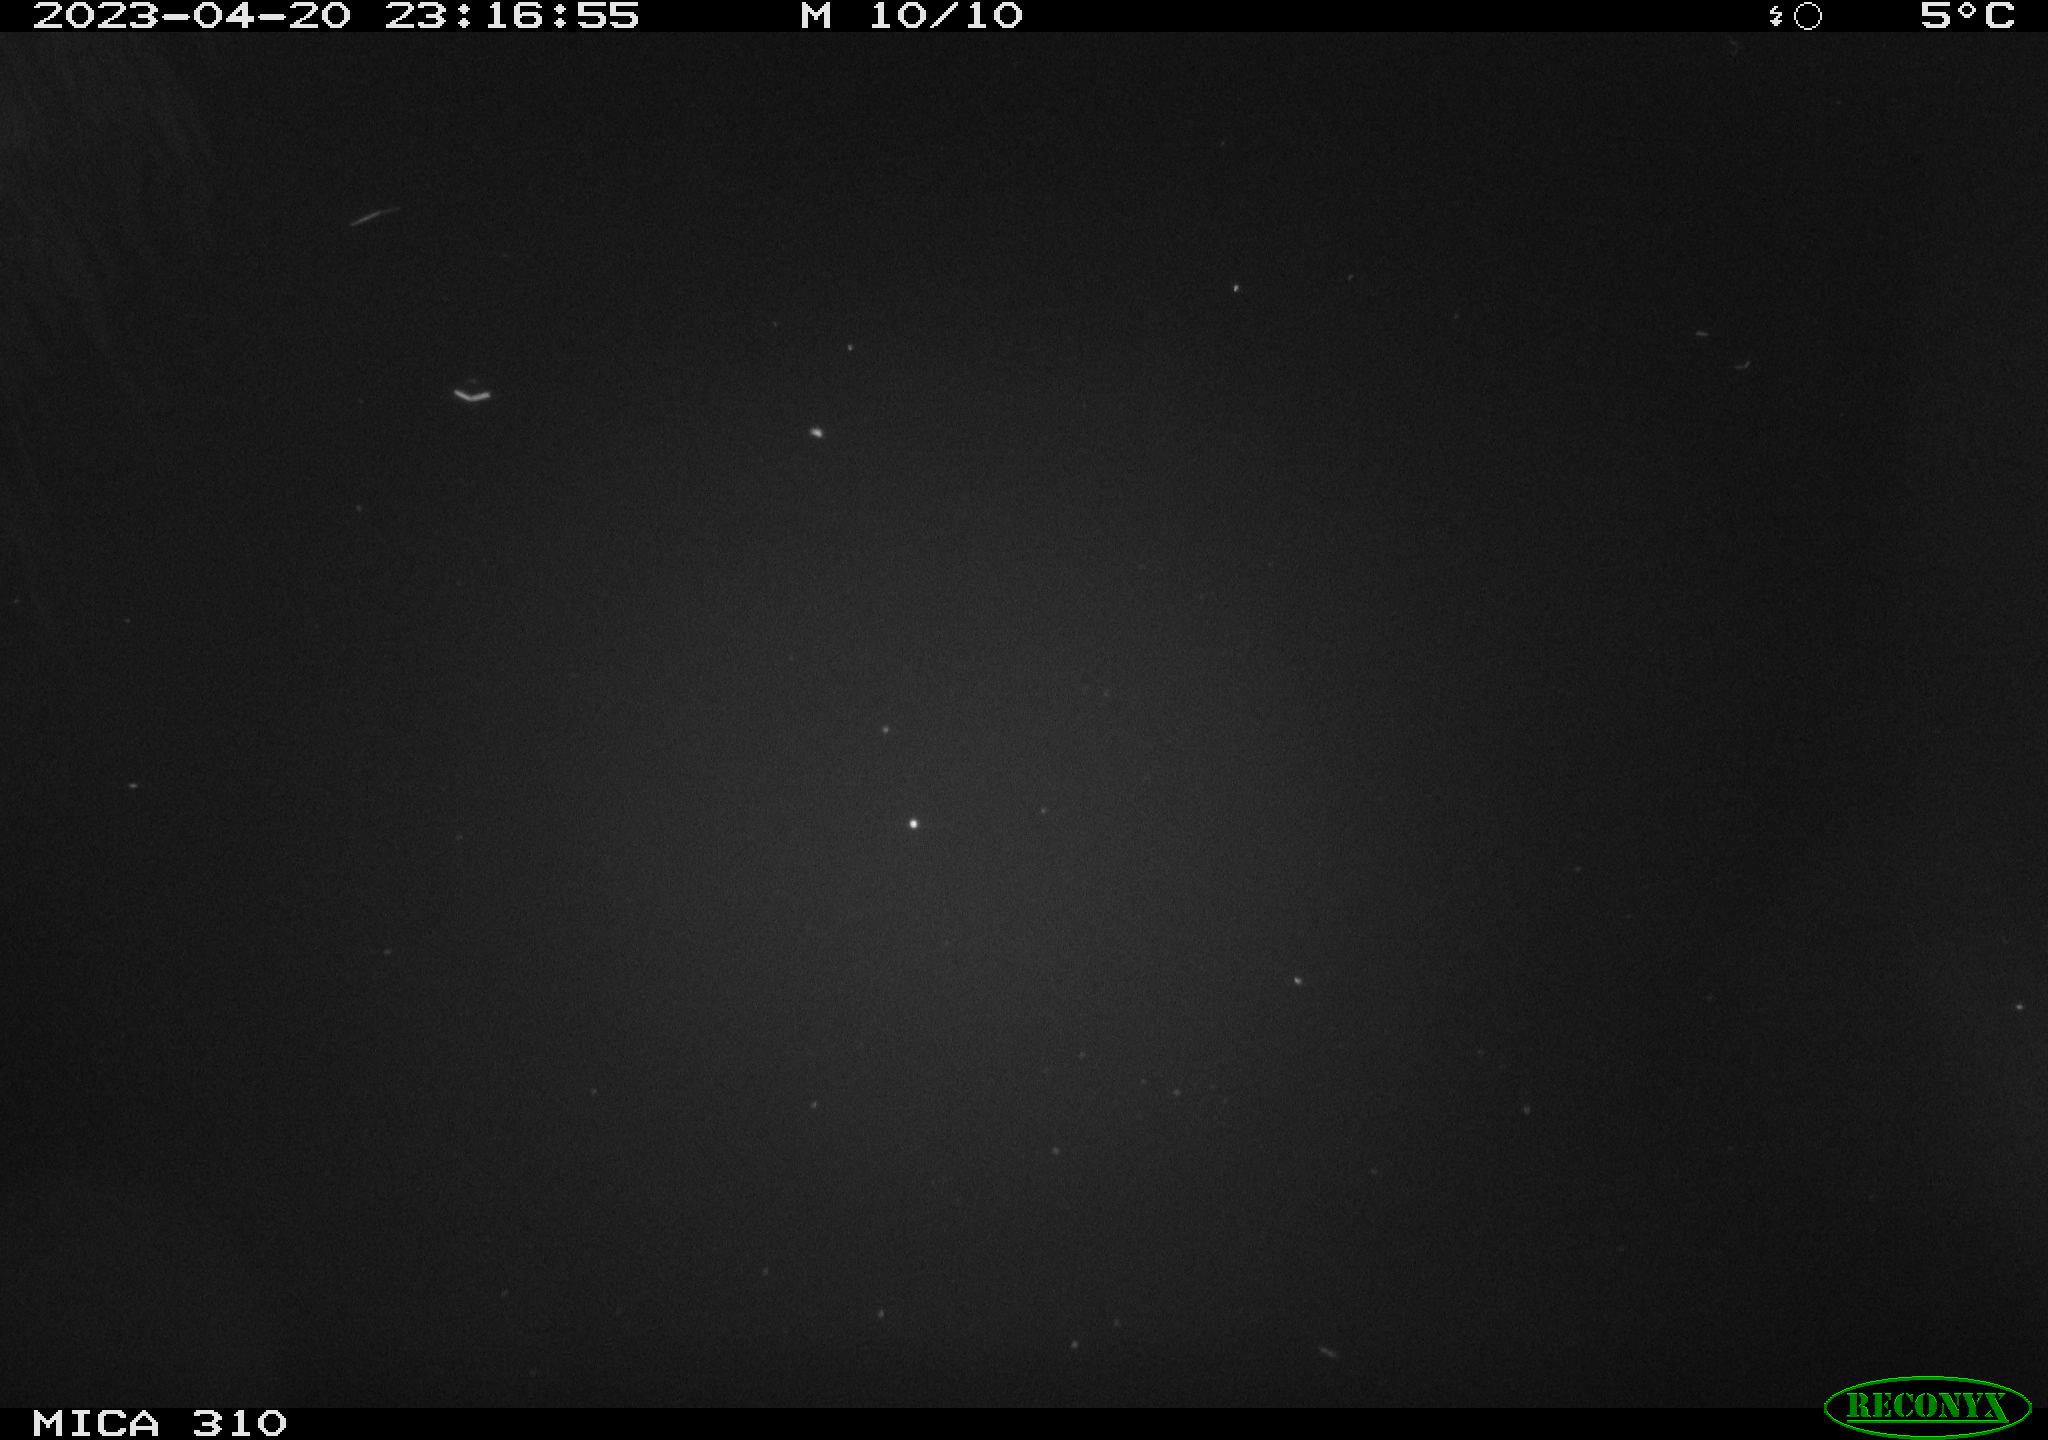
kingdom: Animalia
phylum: Chordata
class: Aves
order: Anseriformes
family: Anatidae
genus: Anas
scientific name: Anas
